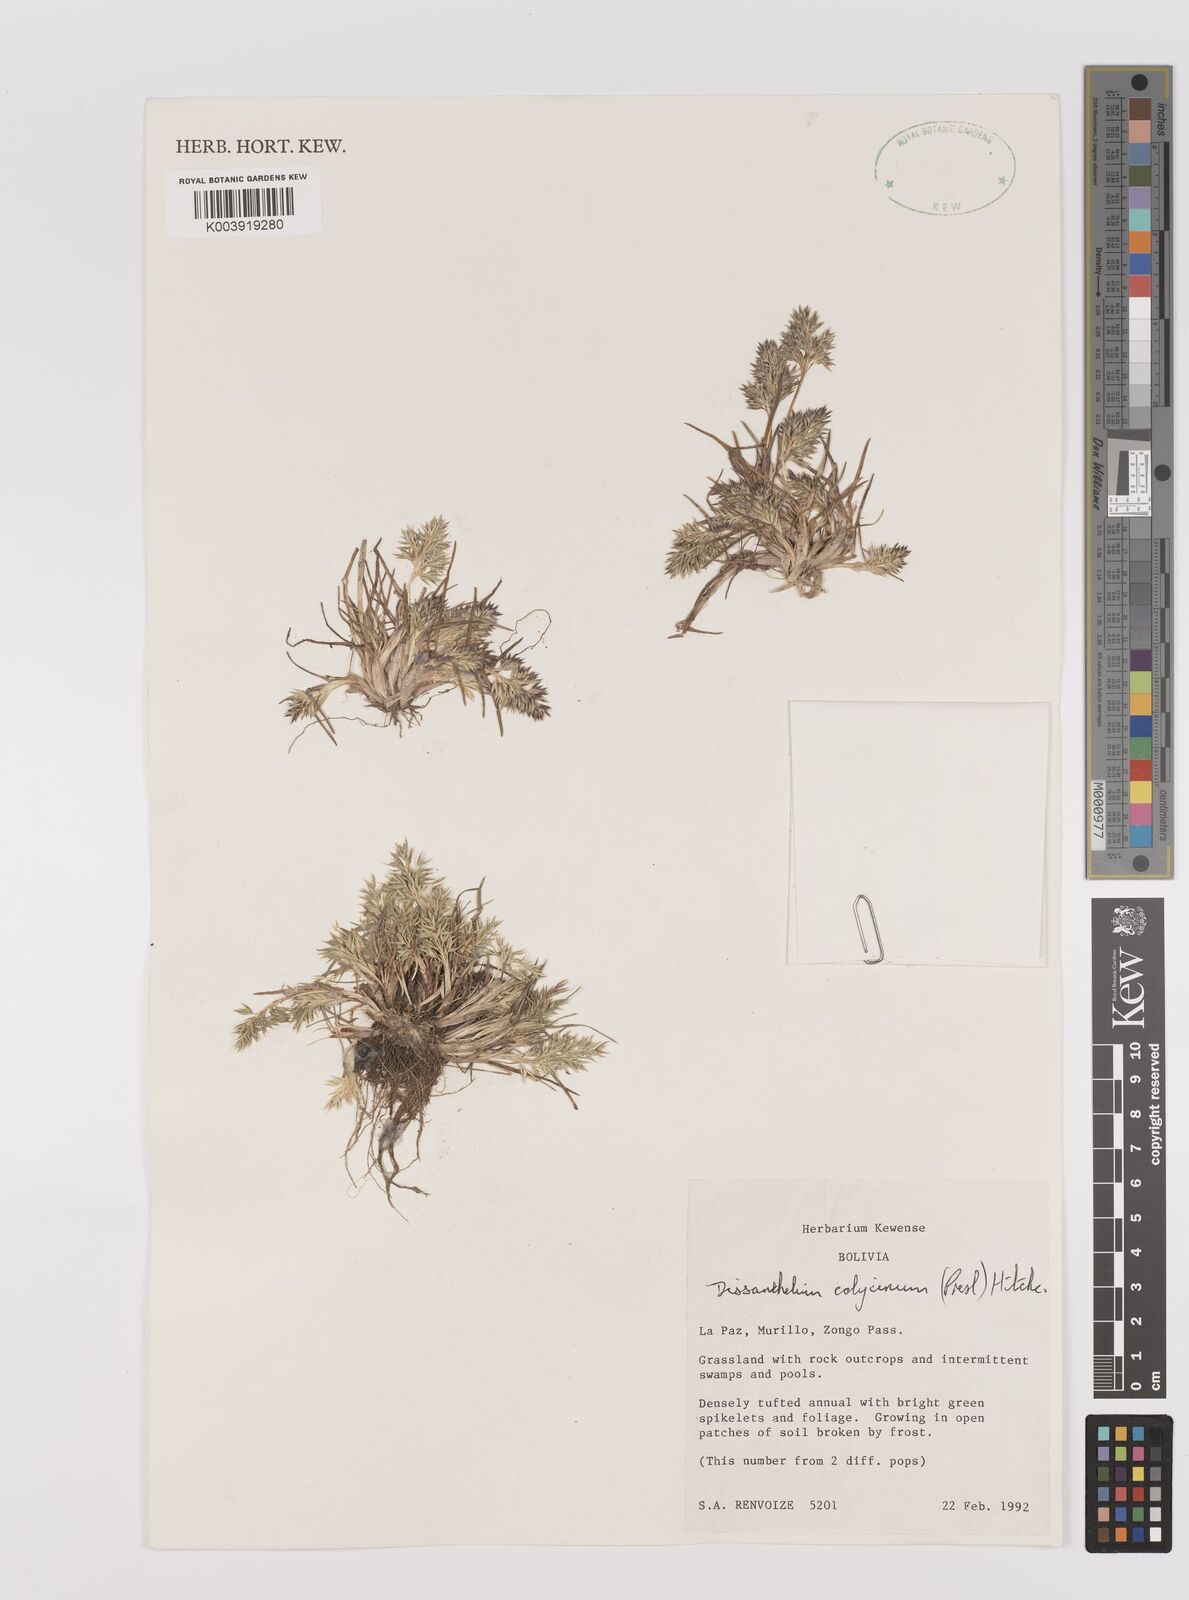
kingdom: Plantae
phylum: Tracheophyta
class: Liliopsida
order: Poales
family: Poaceae
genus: Poa
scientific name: Poa calycina
